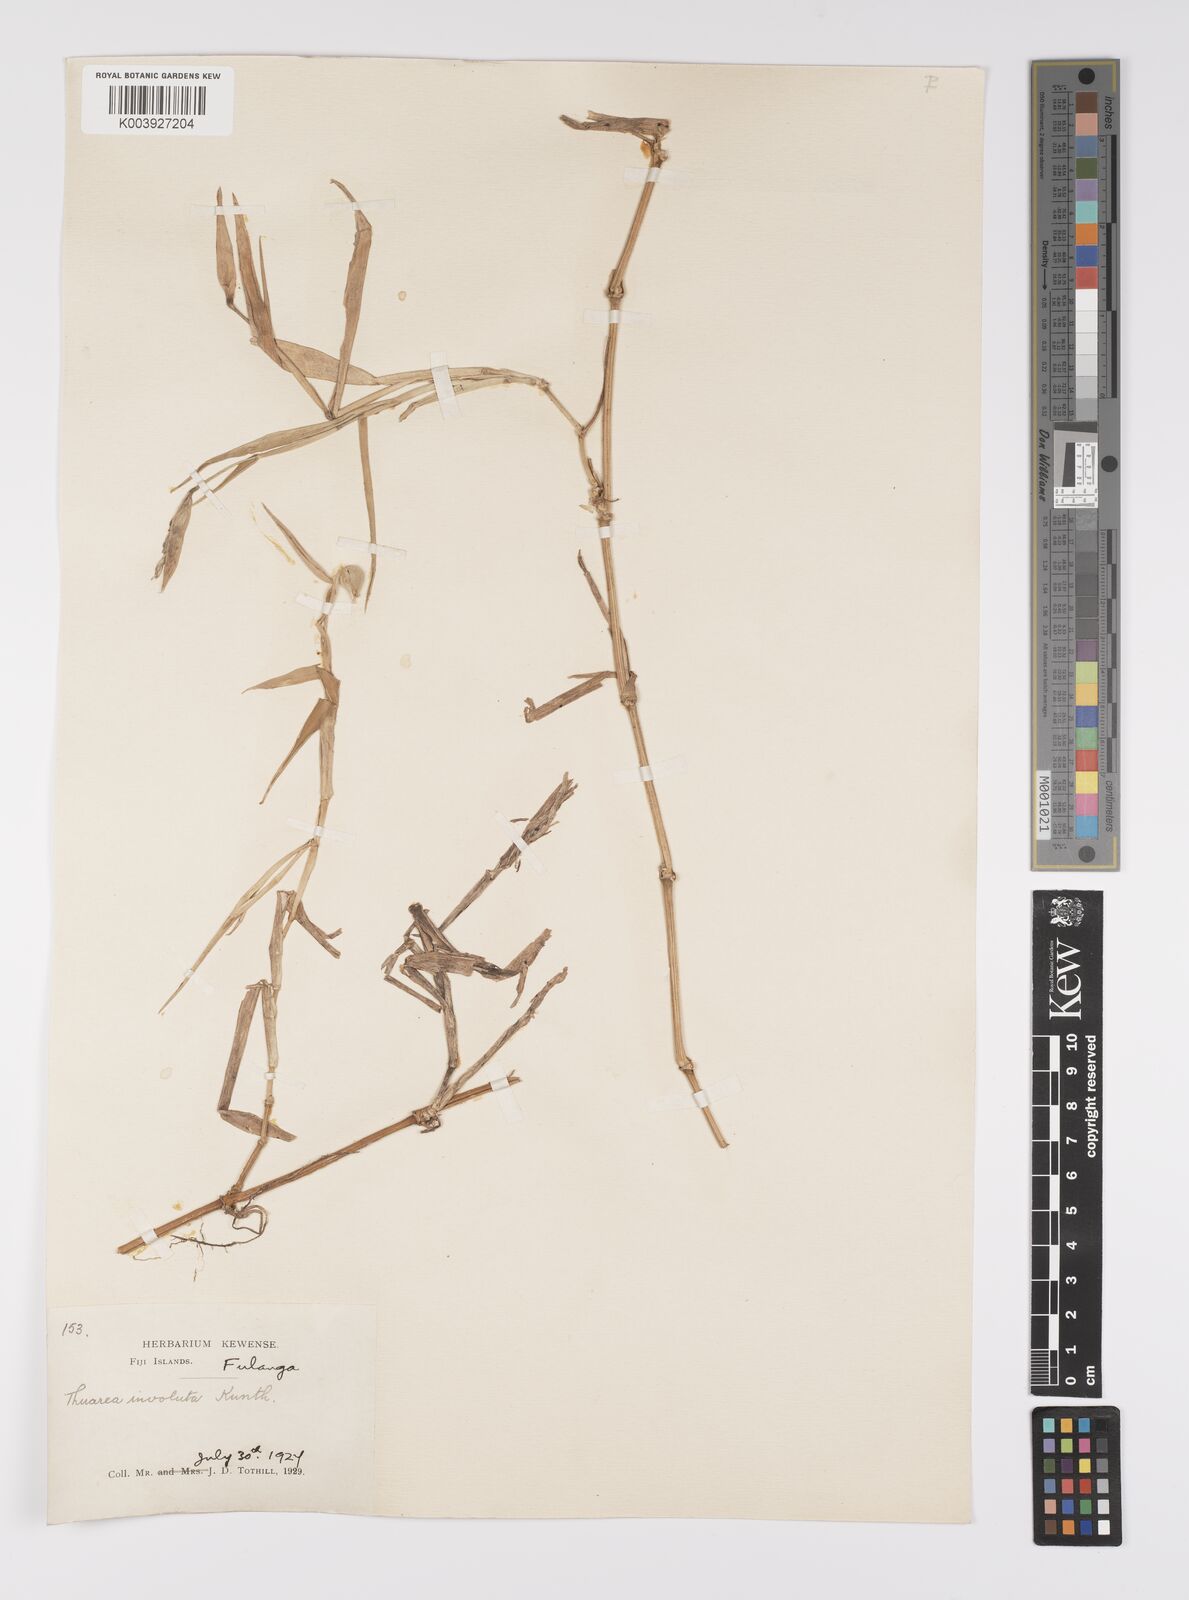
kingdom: Plantae
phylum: Tracheophyta
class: Liliopsida
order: Poales
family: Poaceae
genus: Thuarea
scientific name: Thuarea involuta
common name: Tropical beach grass
